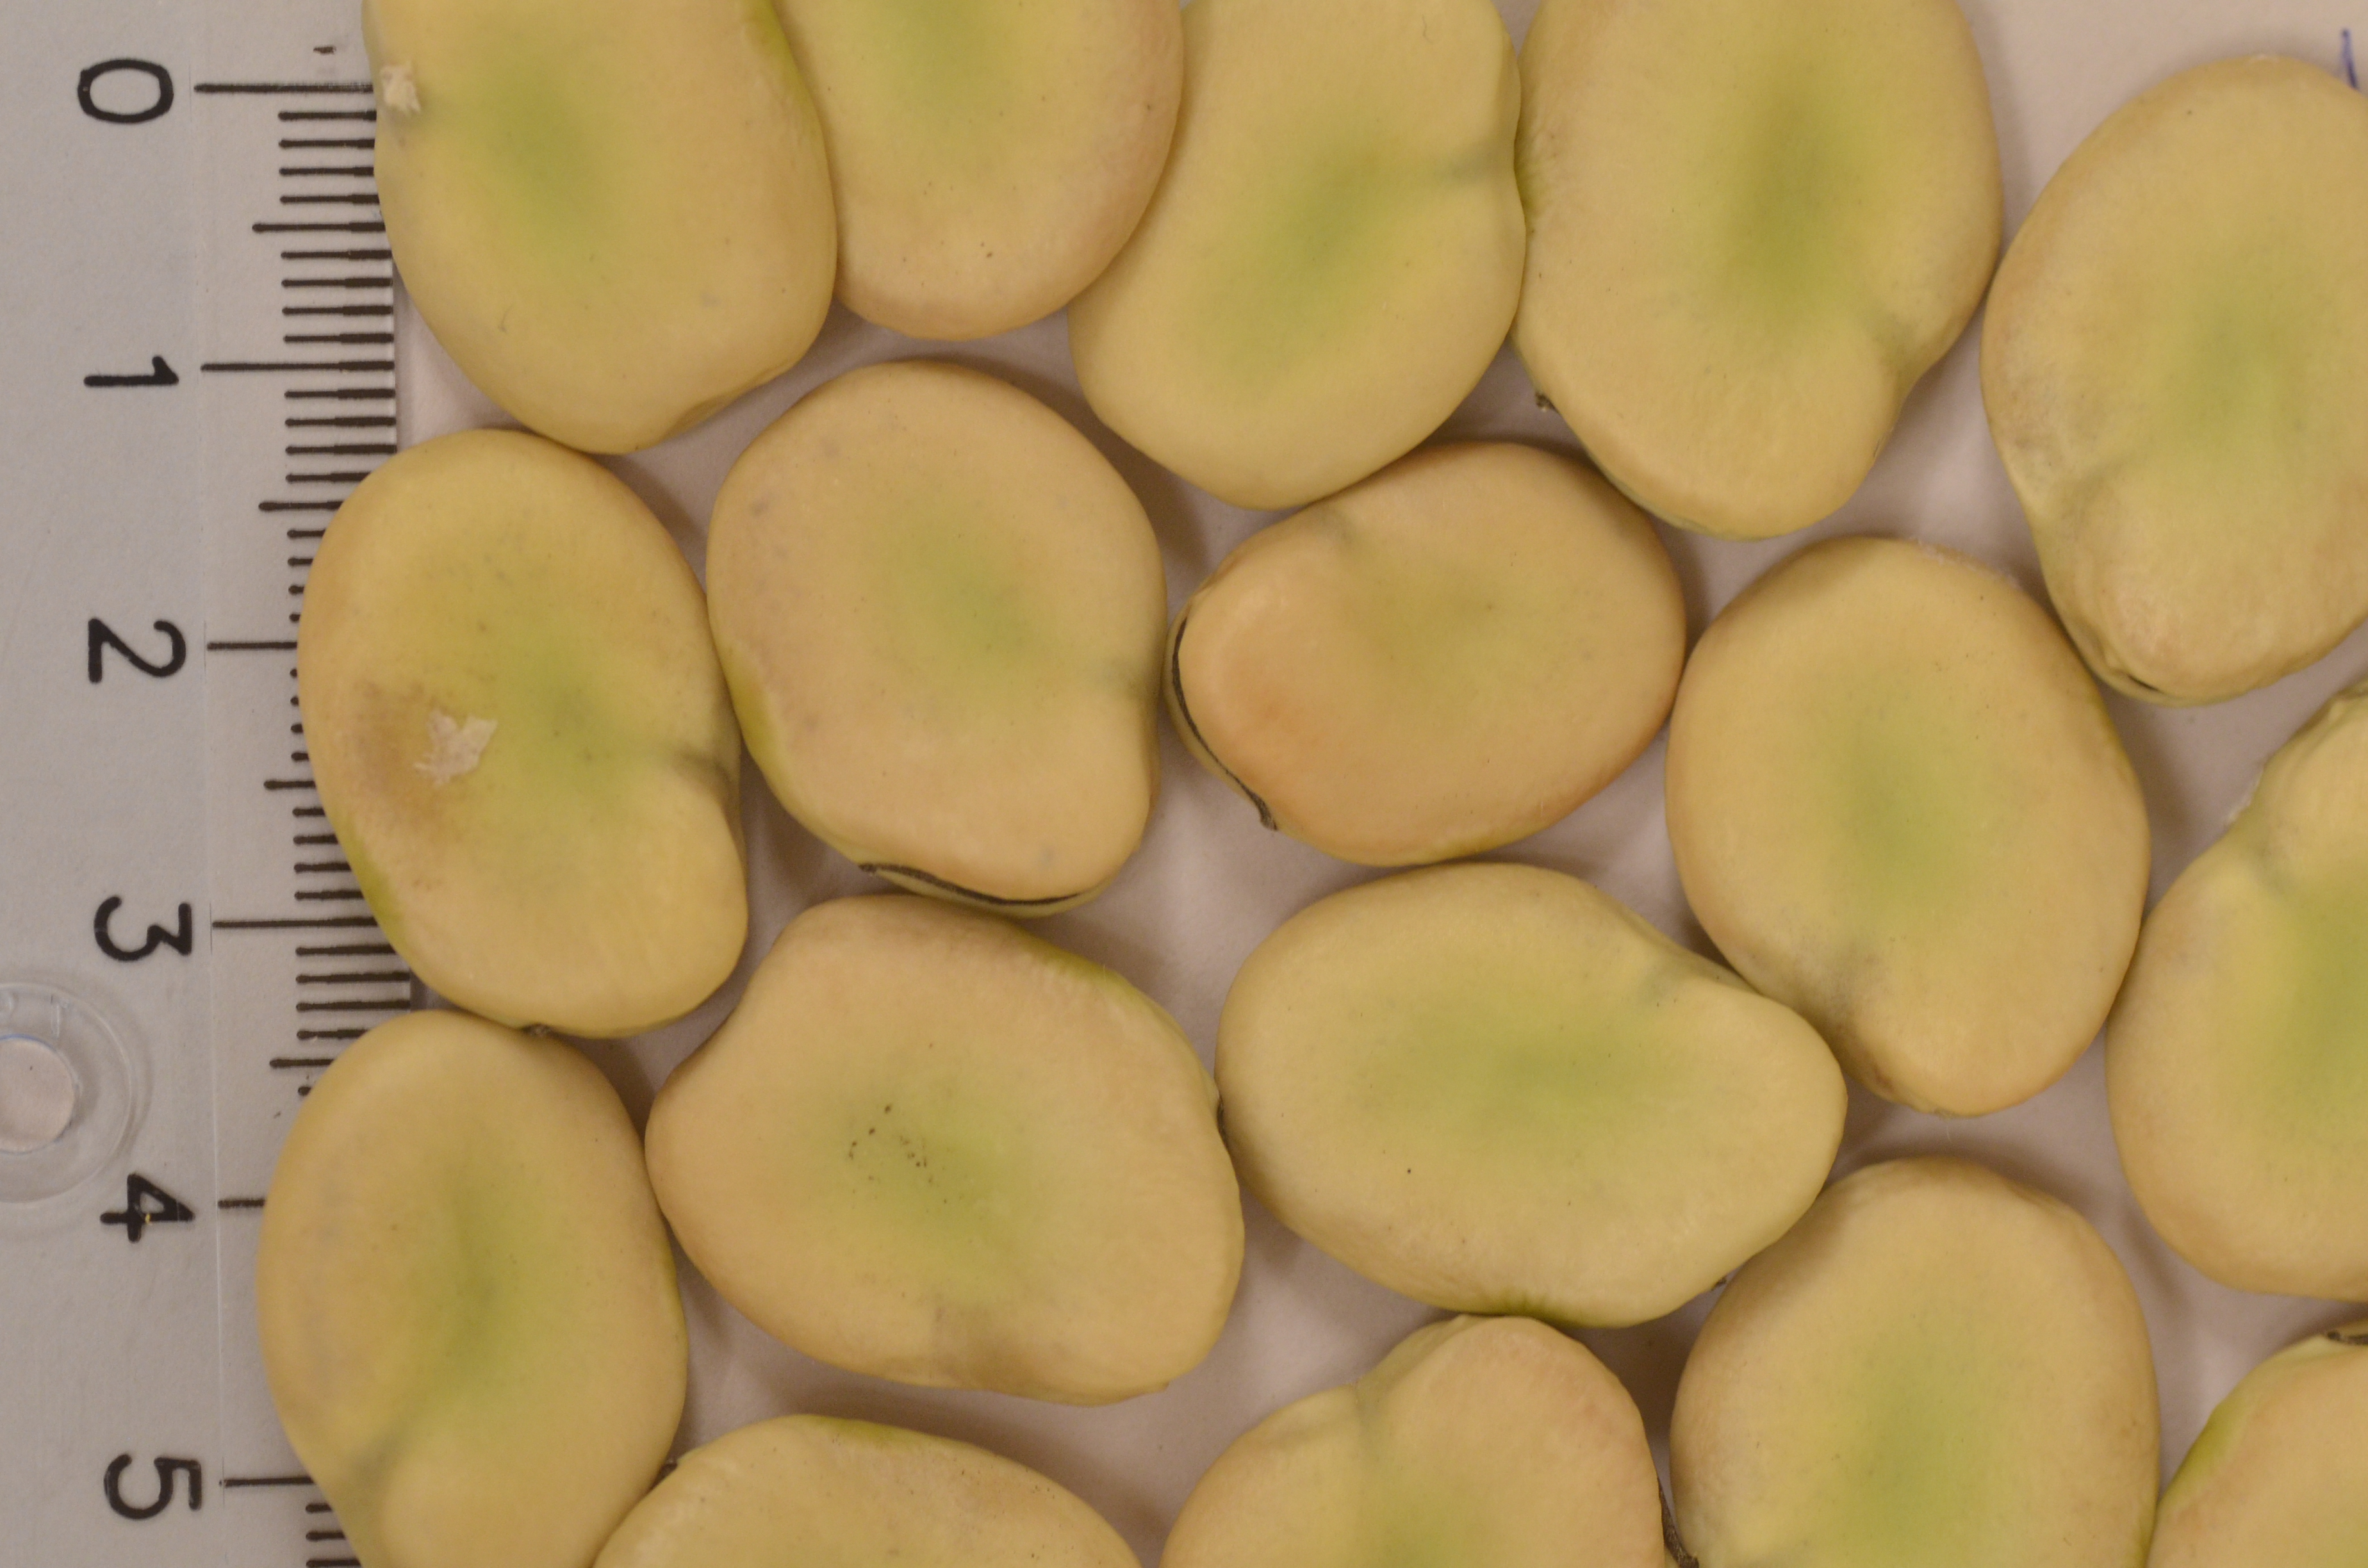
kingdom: Plantae
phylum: Tracheophyta
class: Magnoliopsida
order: Fabales
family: Fabaceae
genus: Vicia
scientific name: Vicia faba
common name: Broad bean
